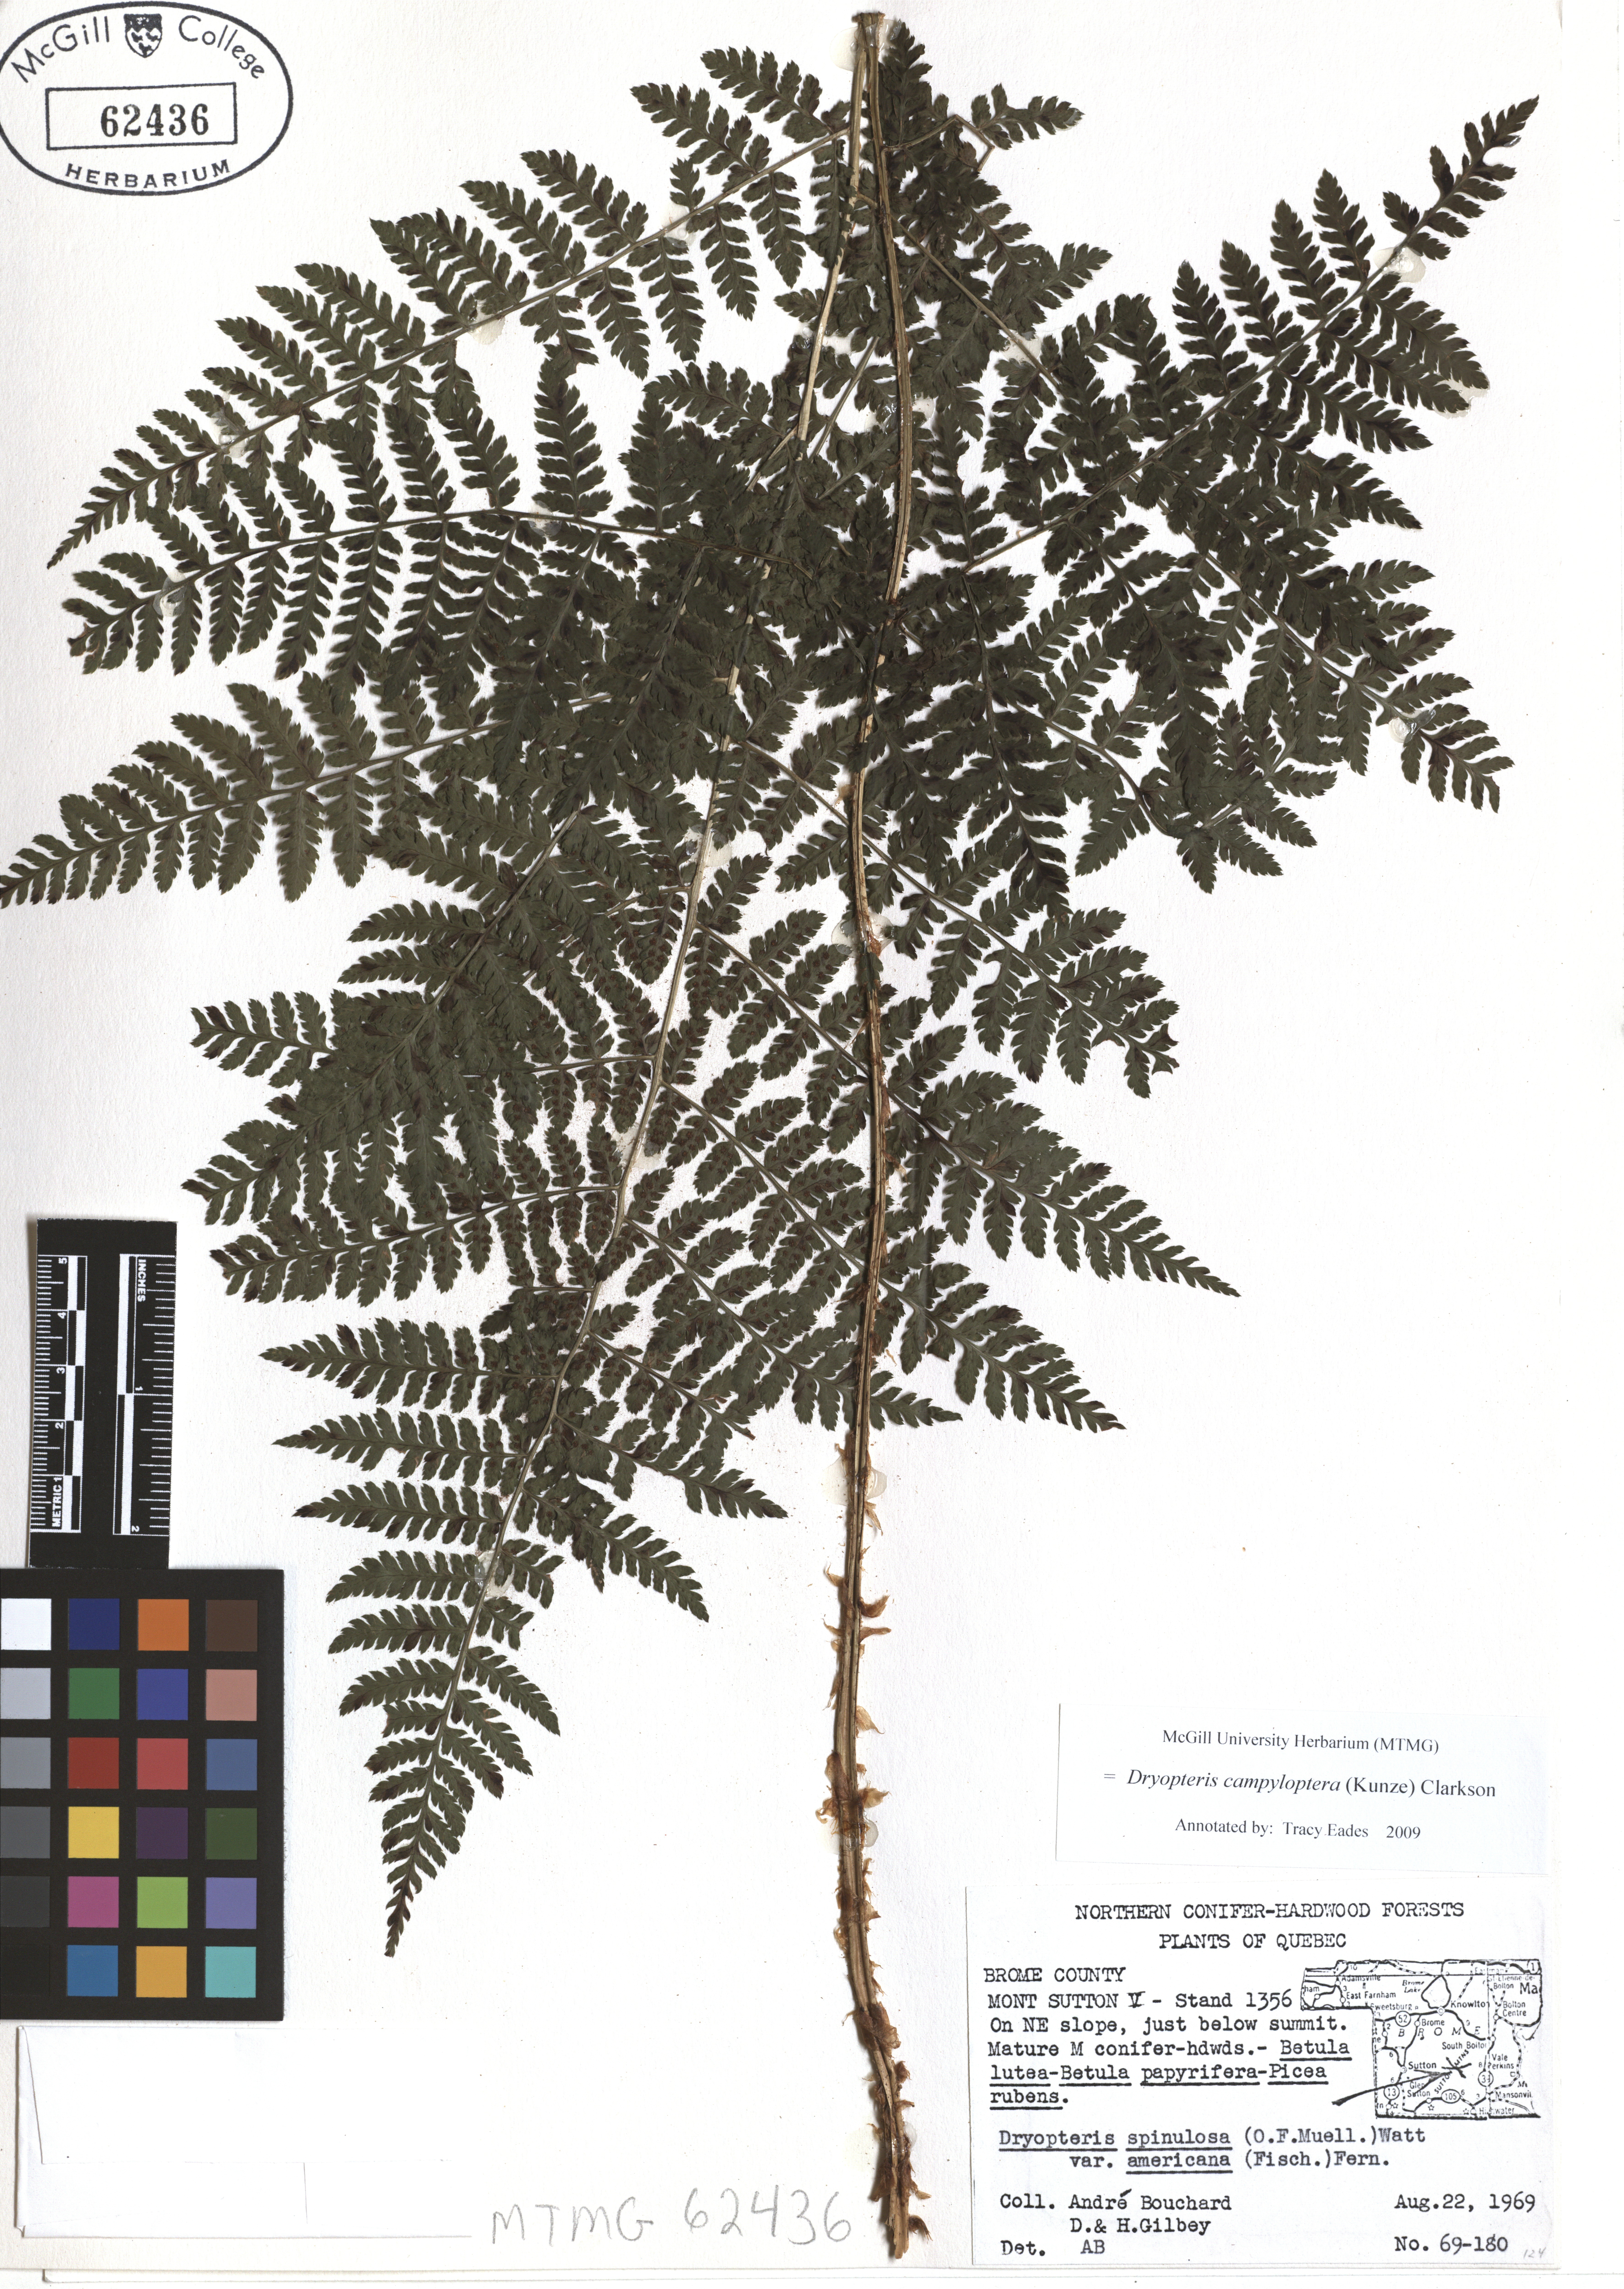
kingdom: Plantae
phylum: Tracheophyta
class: Polypodiopsida
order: Polypodiales
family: Dryopteridaceae
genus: Dryopteris
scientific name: Dryopteris campyloptera
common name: Mountain wood fern
